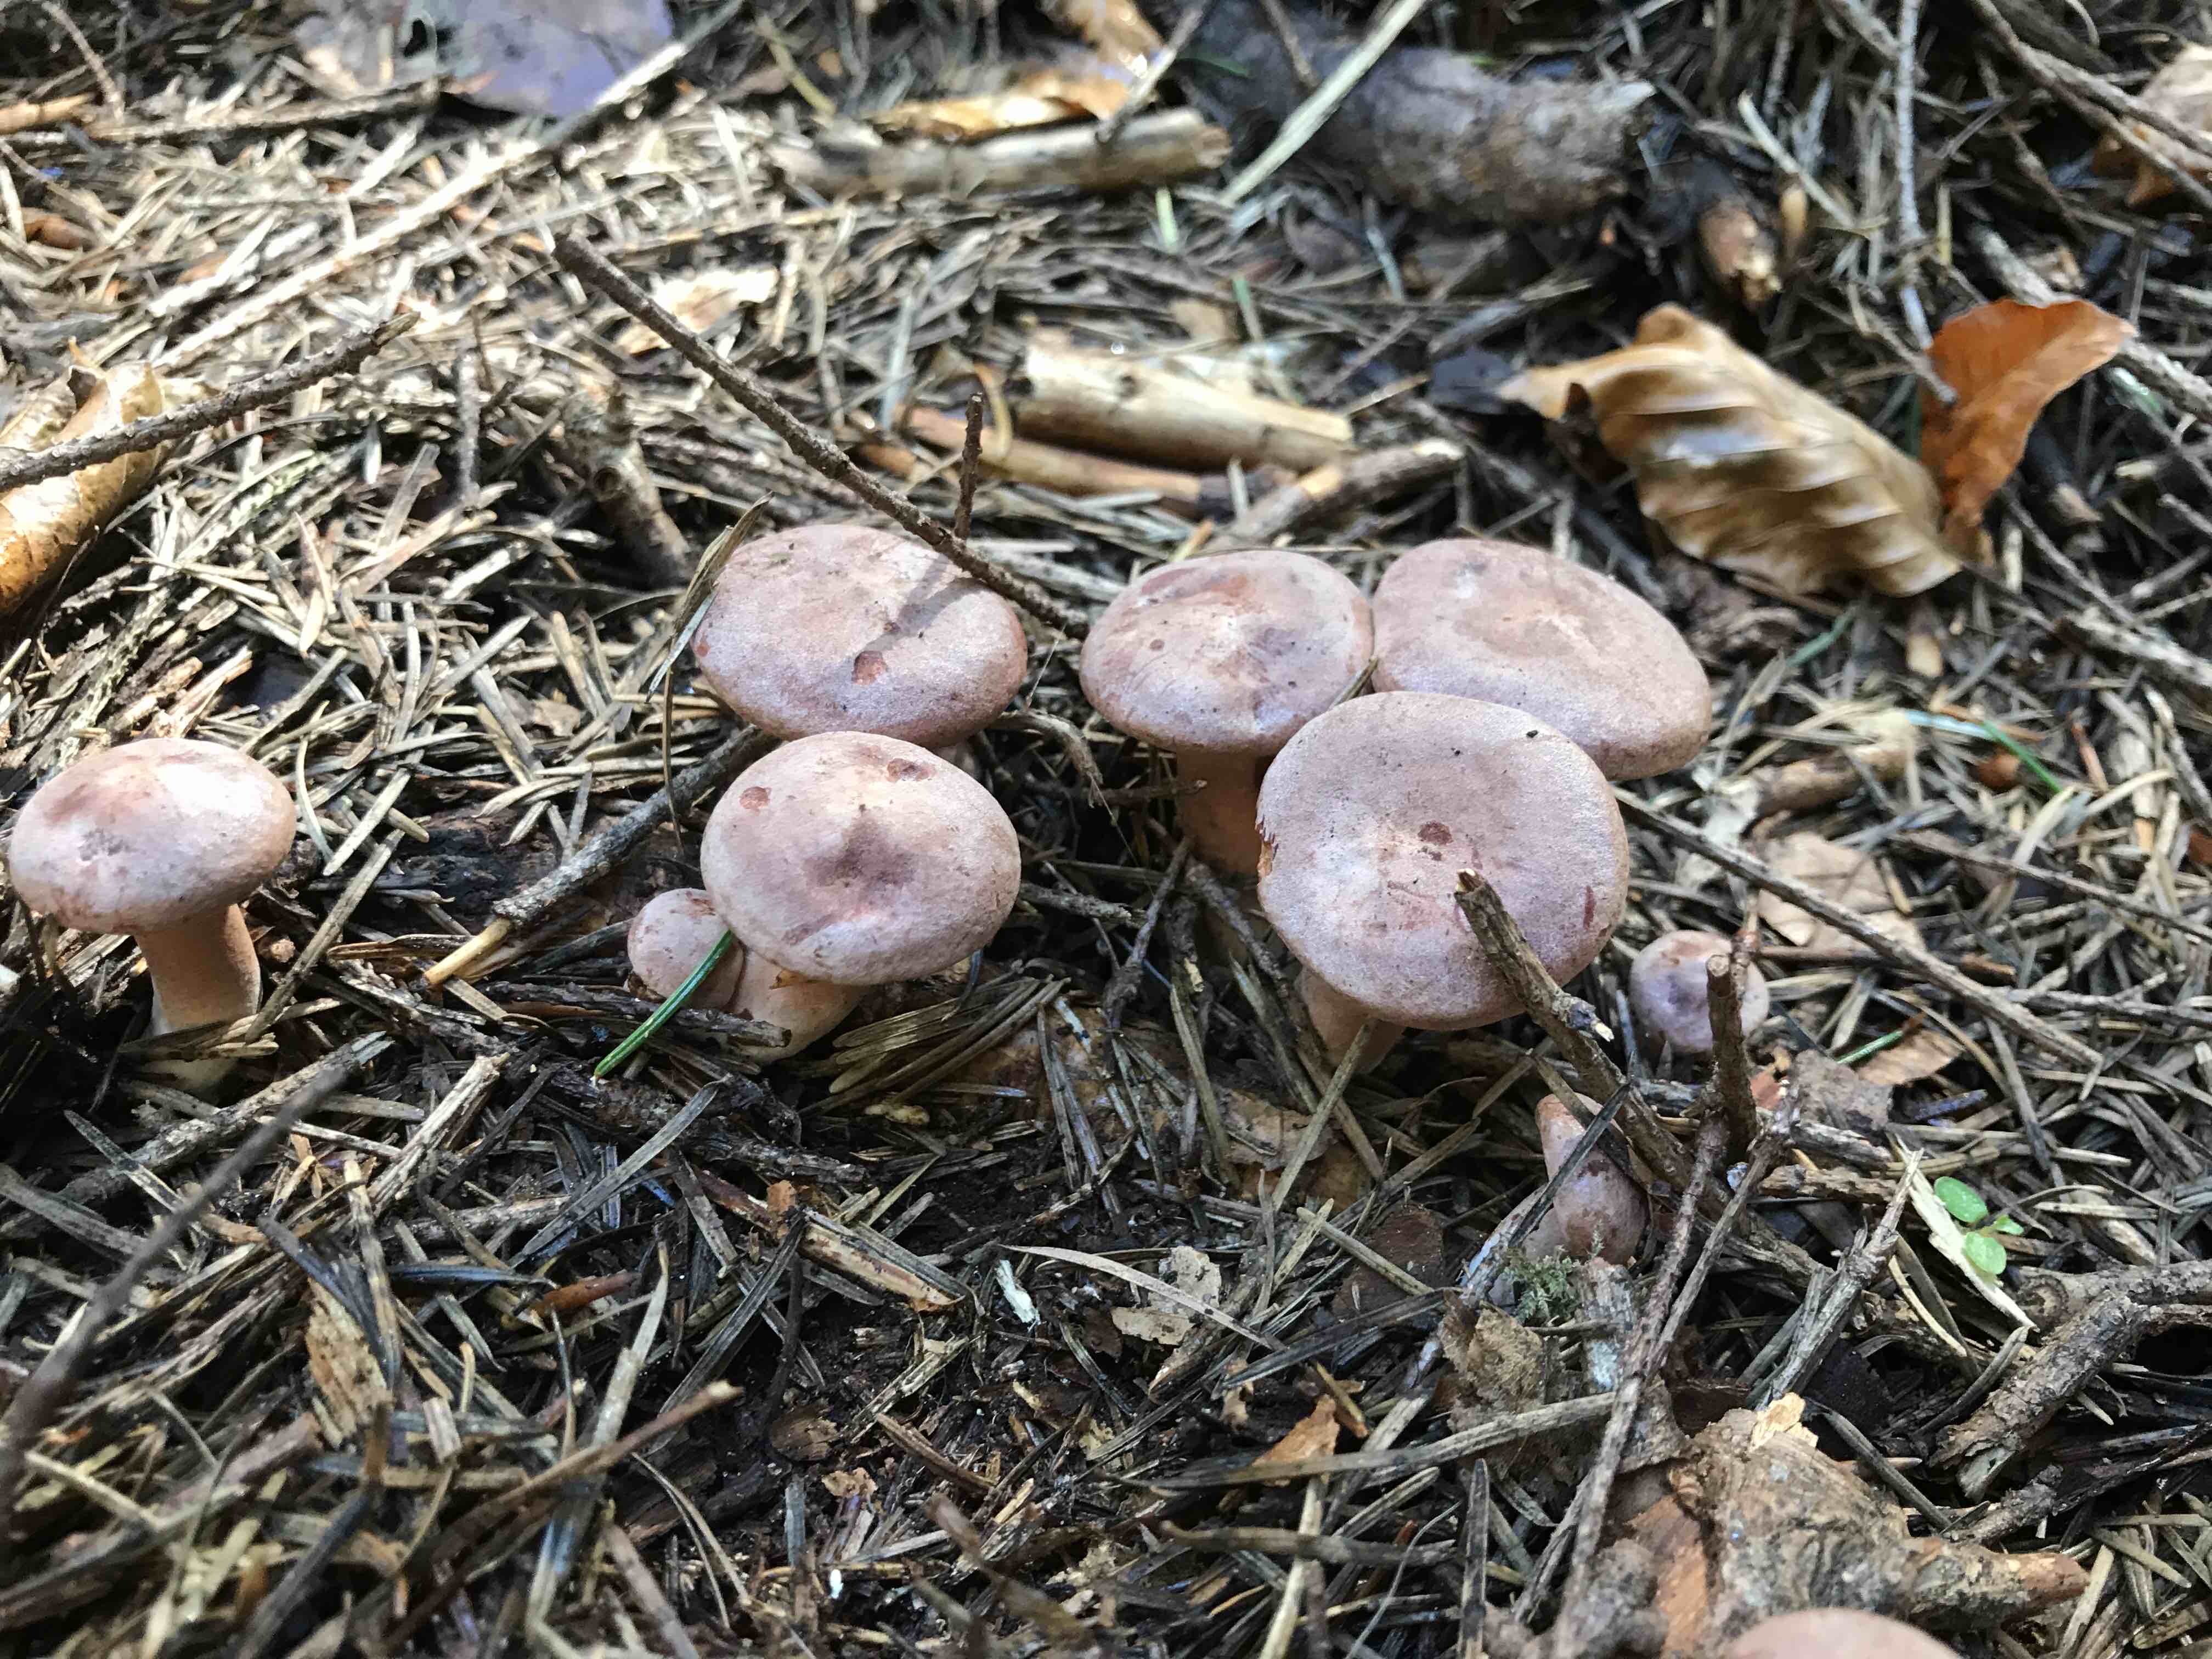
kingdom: Fungi
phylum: Basidiomycota
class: Agaricomycetes
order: Russulales
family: Russulaceae
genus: Lactarius
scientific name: Lactarius rufus
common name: rødbrun mælkehat
